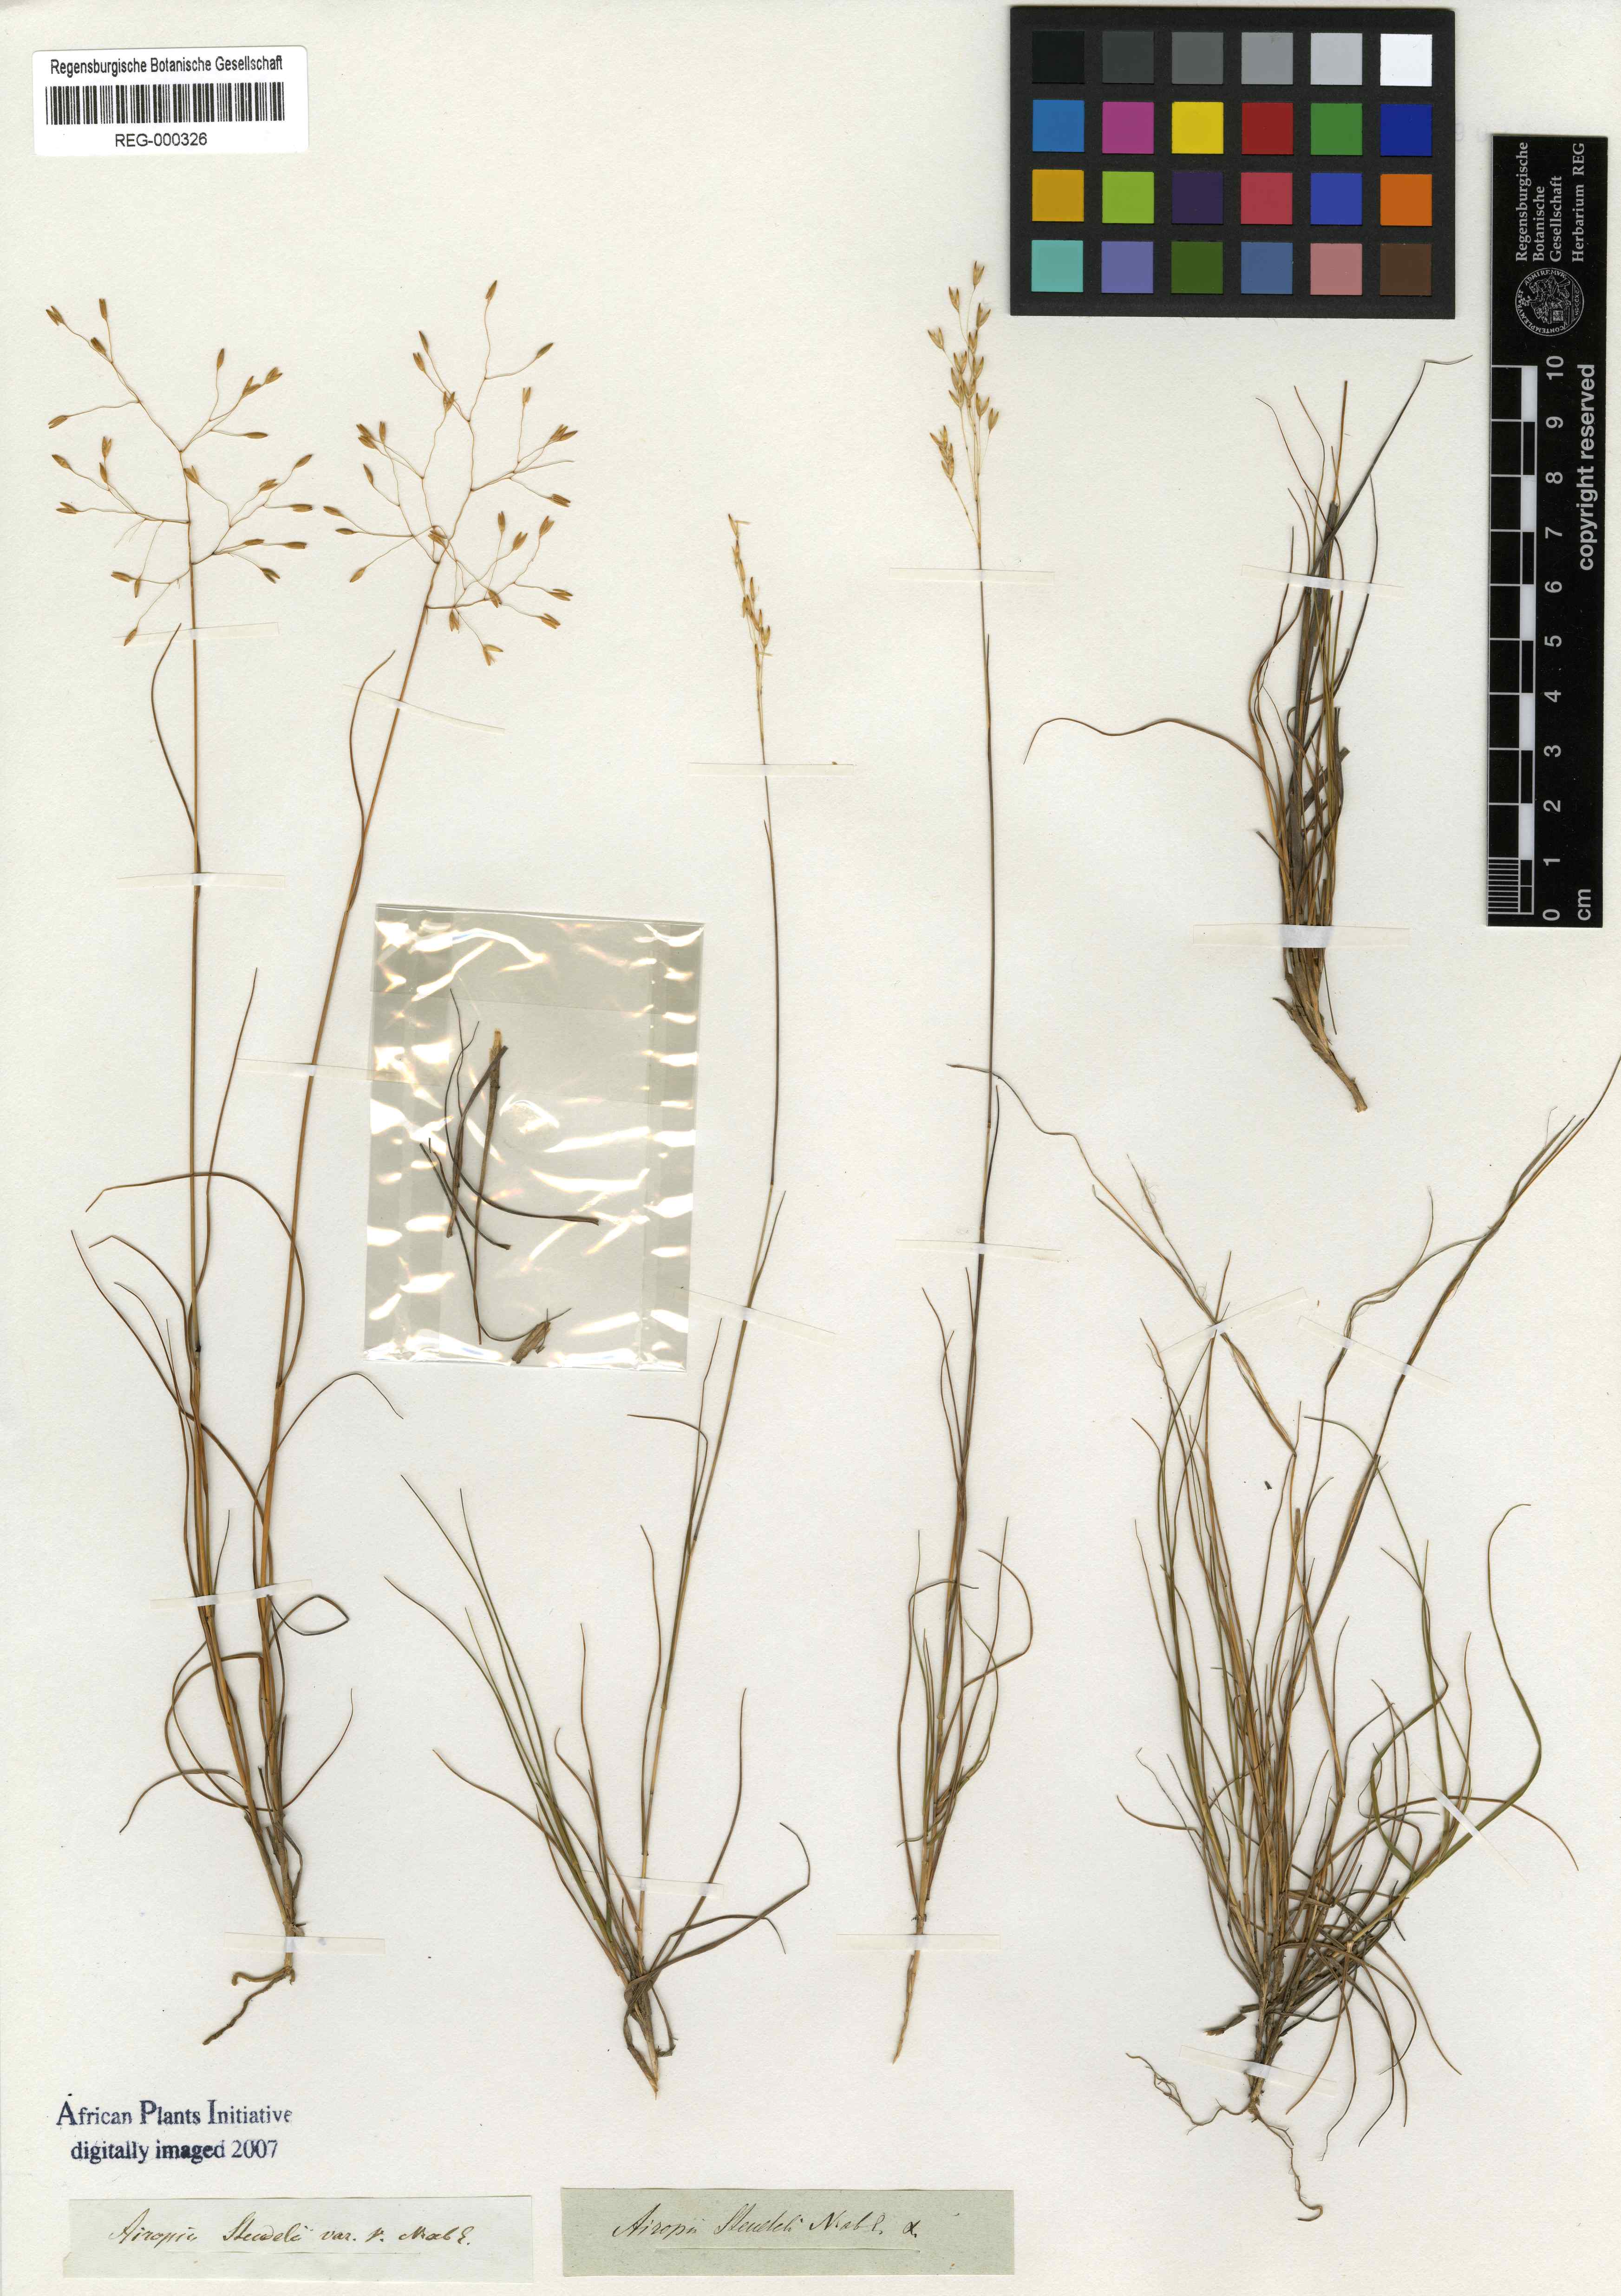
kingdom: Plantae
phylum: Tracheophyta
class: Liliopsida
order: Poales
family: Poaceae
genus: Pentameris
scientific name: Pentameris malouinensis
